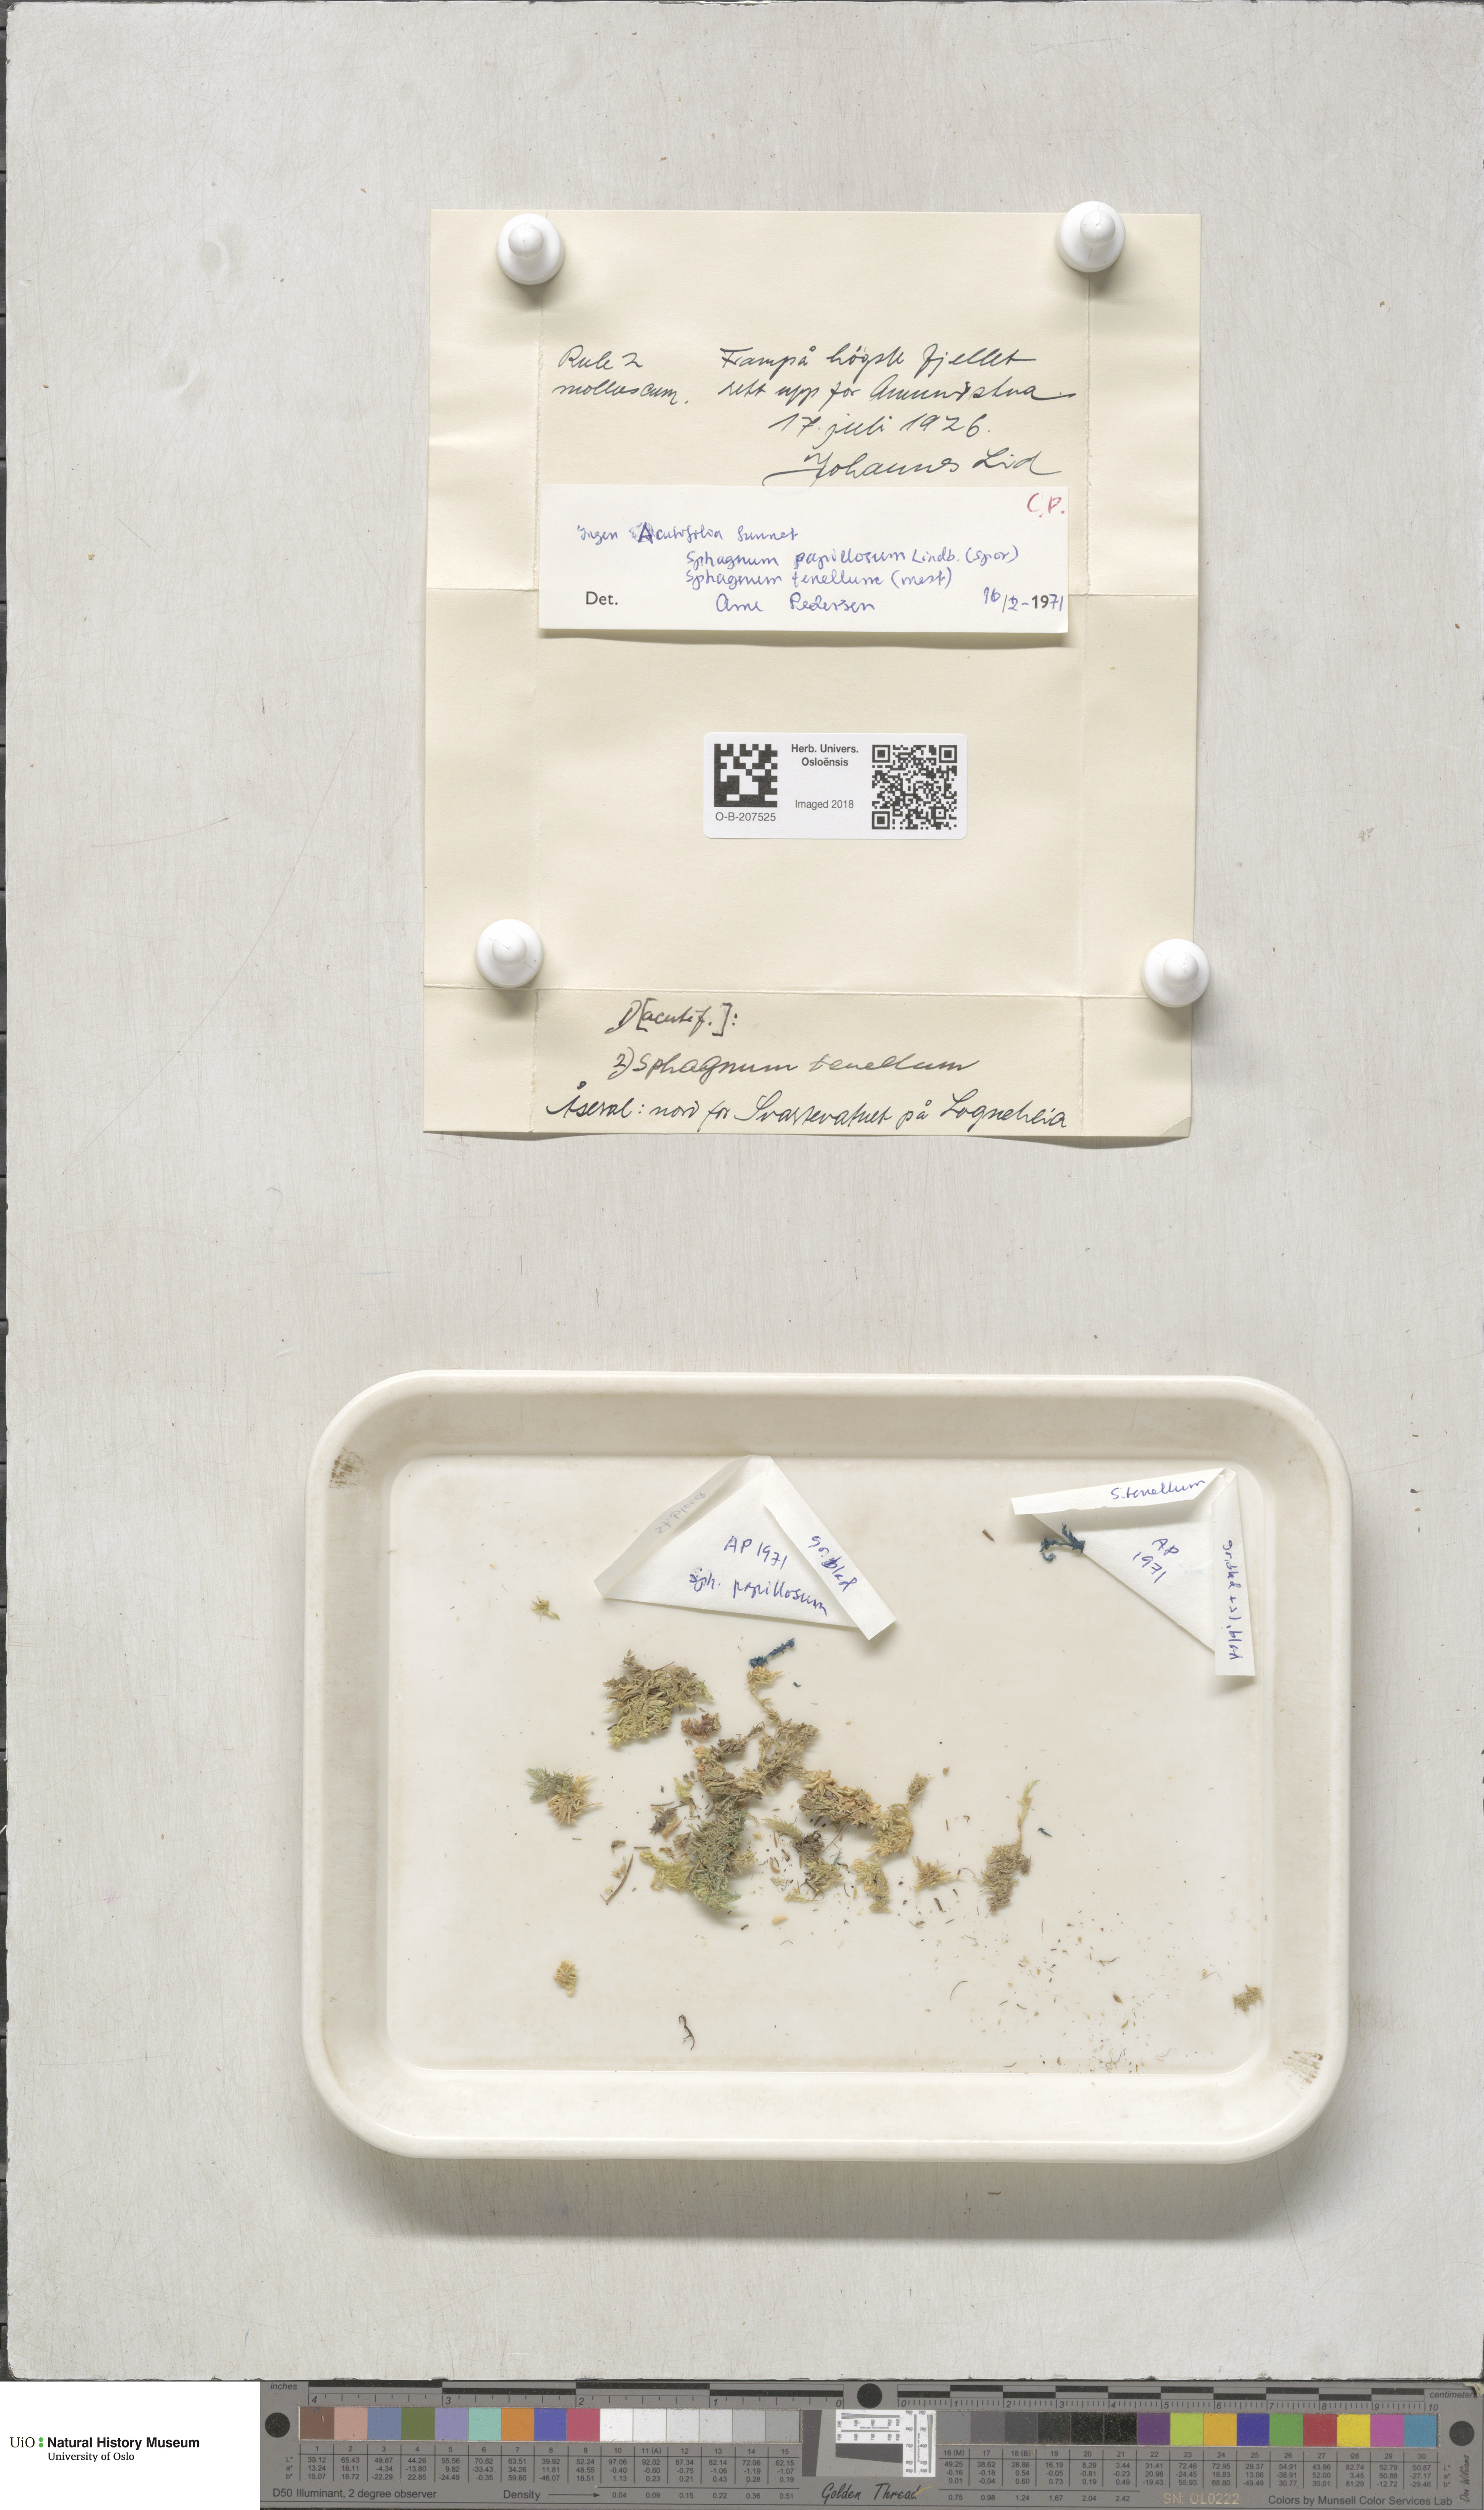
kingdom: Plantae
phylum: Bryophyta
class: Sphagnopsida
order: Sphagnales
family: Sphagnaceae
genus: Sphagnum
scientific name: Sphagnum tenellum
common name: Soft bog-moss
